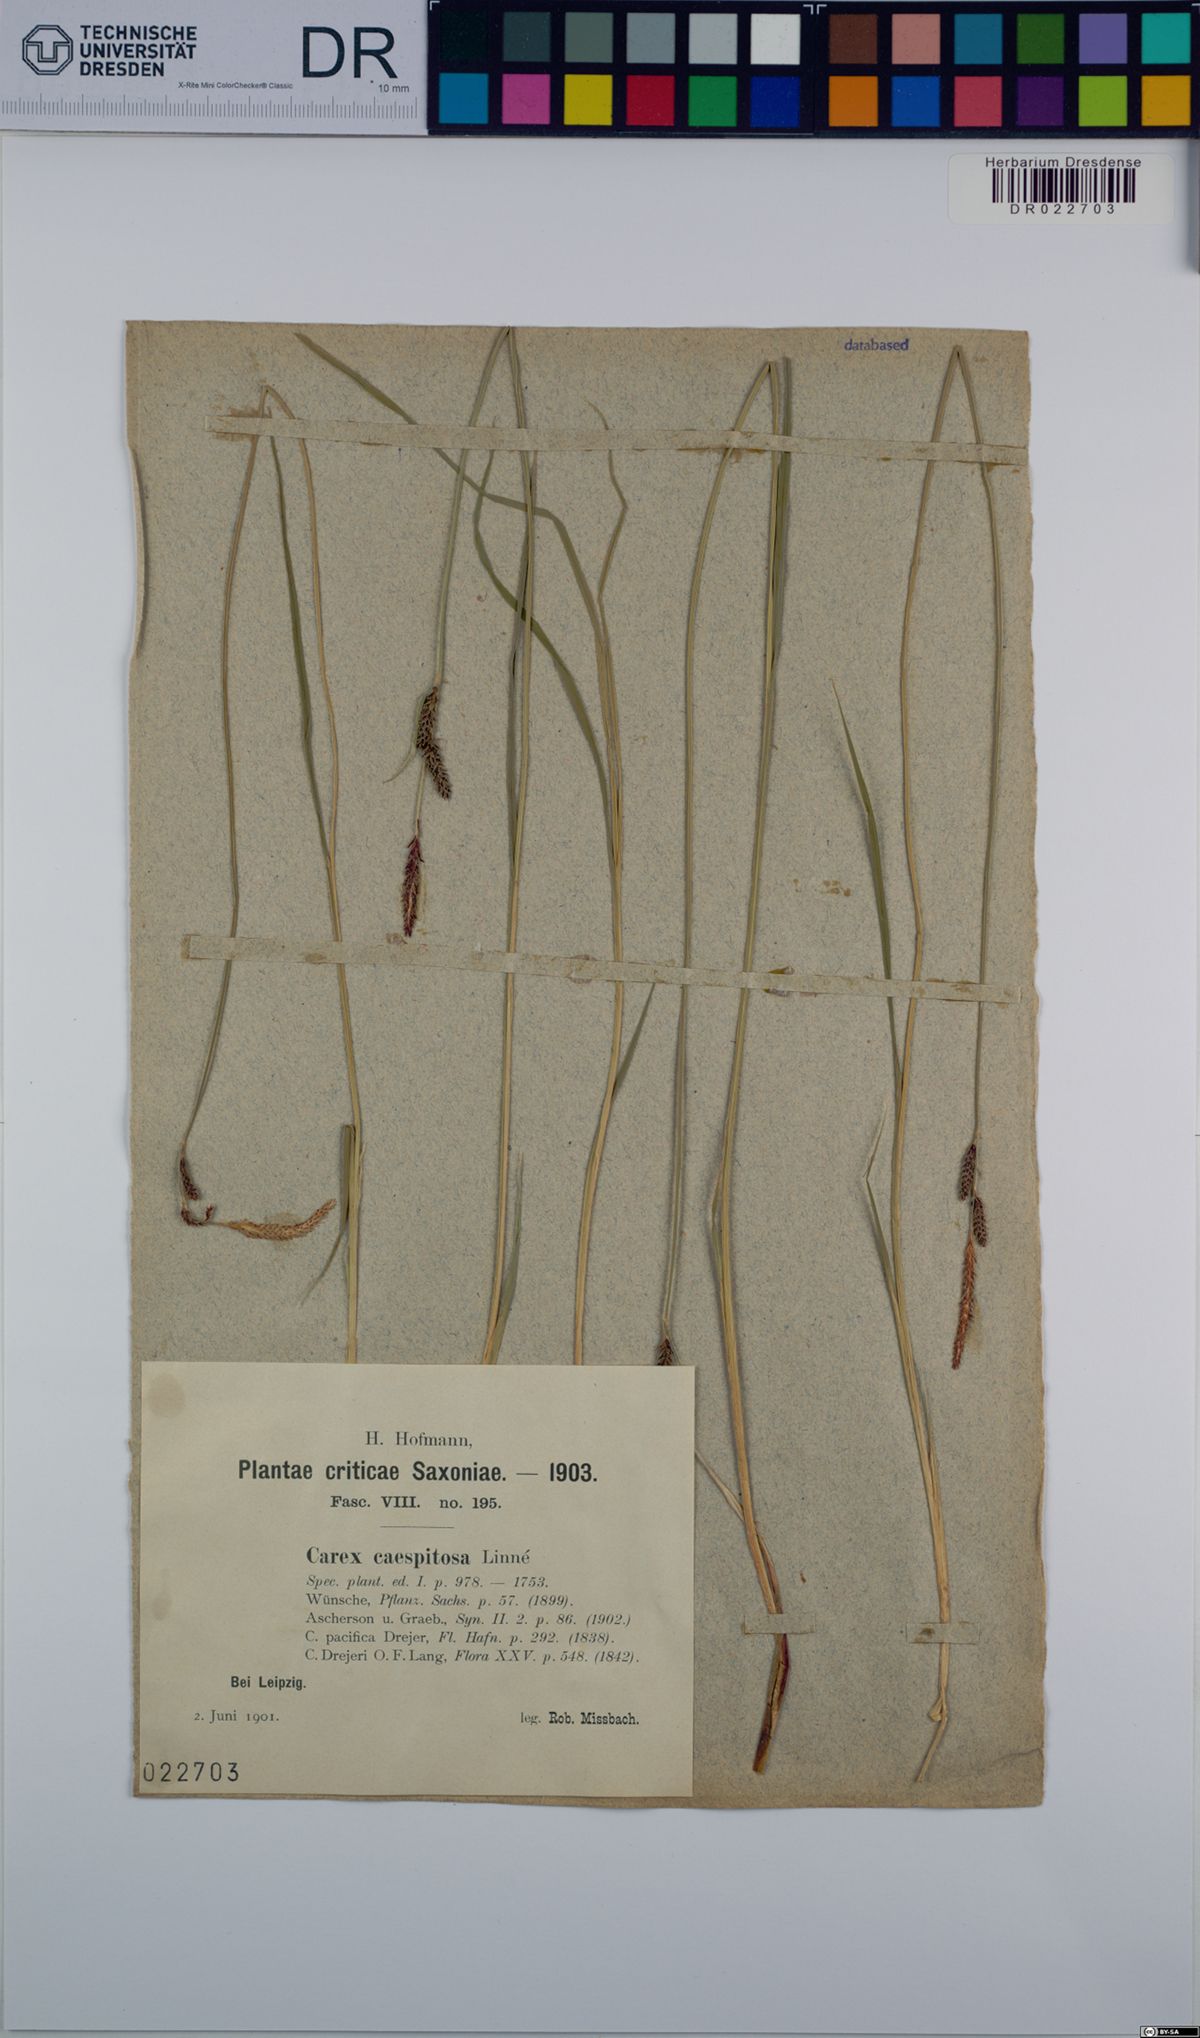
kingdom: Plantae
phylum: Tracheophyta
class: Liliopsida
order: Poales
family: Cyperaceae
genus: Carex
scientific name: Carex cespitosa
